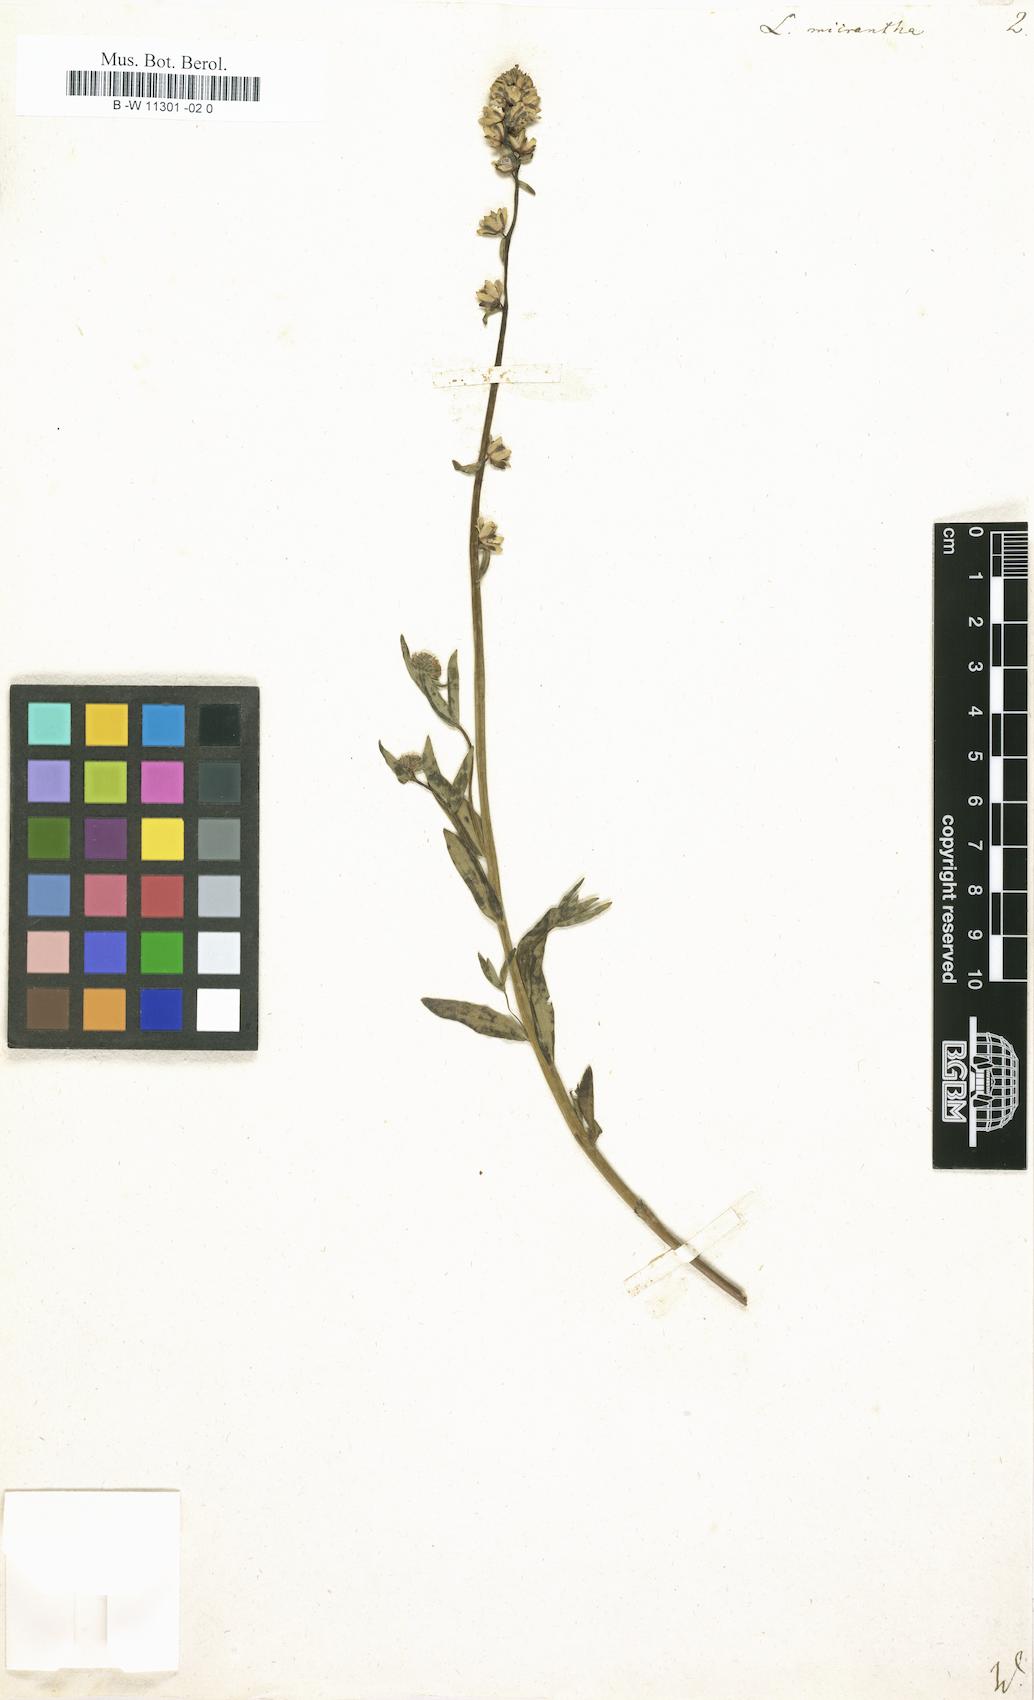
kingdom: Plantae
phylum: Tracheophyta
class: Magnoliopsida
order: Lamiales
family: Plantaginaceae
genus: Linaria
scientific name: Linaria micrantha
